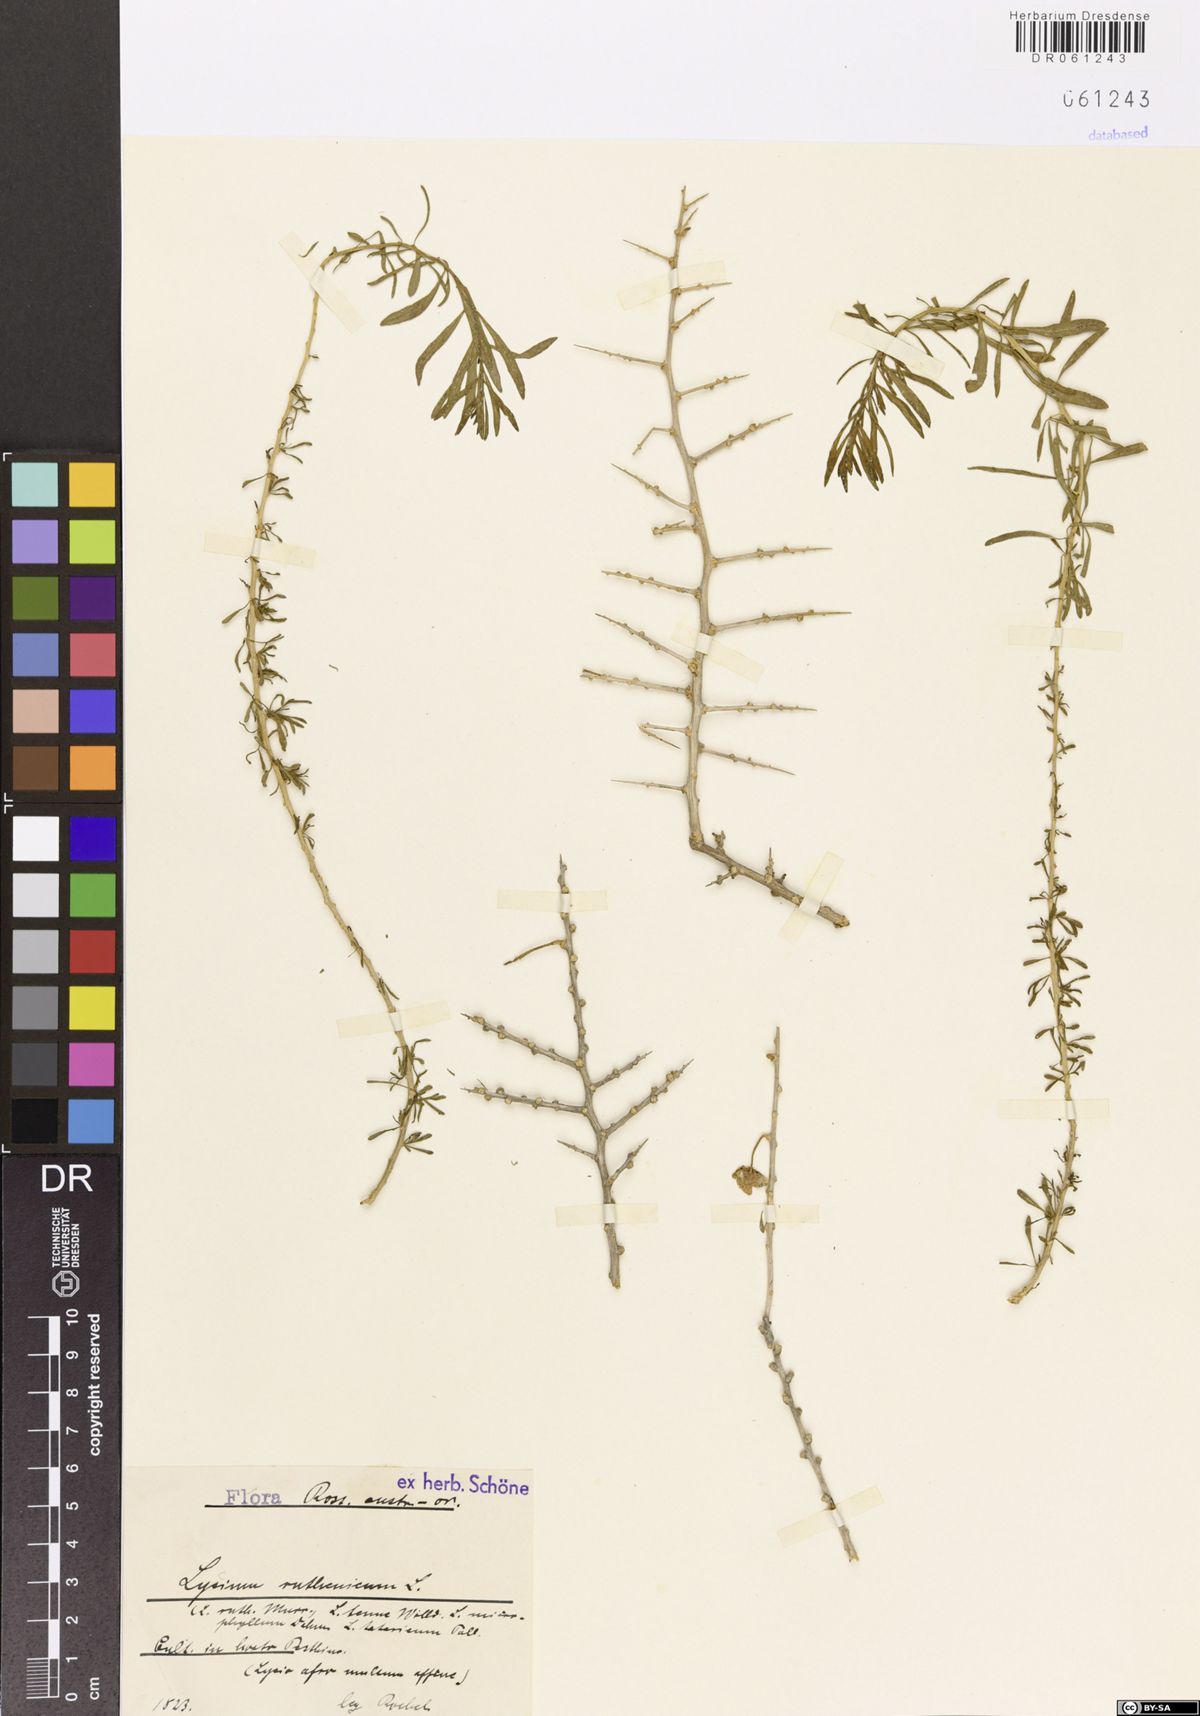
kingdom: Plantae
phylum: Tracheophyta
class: Magnoliopsida
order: Solanales
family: Solanaceae
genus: Lycium
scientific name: Lycium ruthenicum
